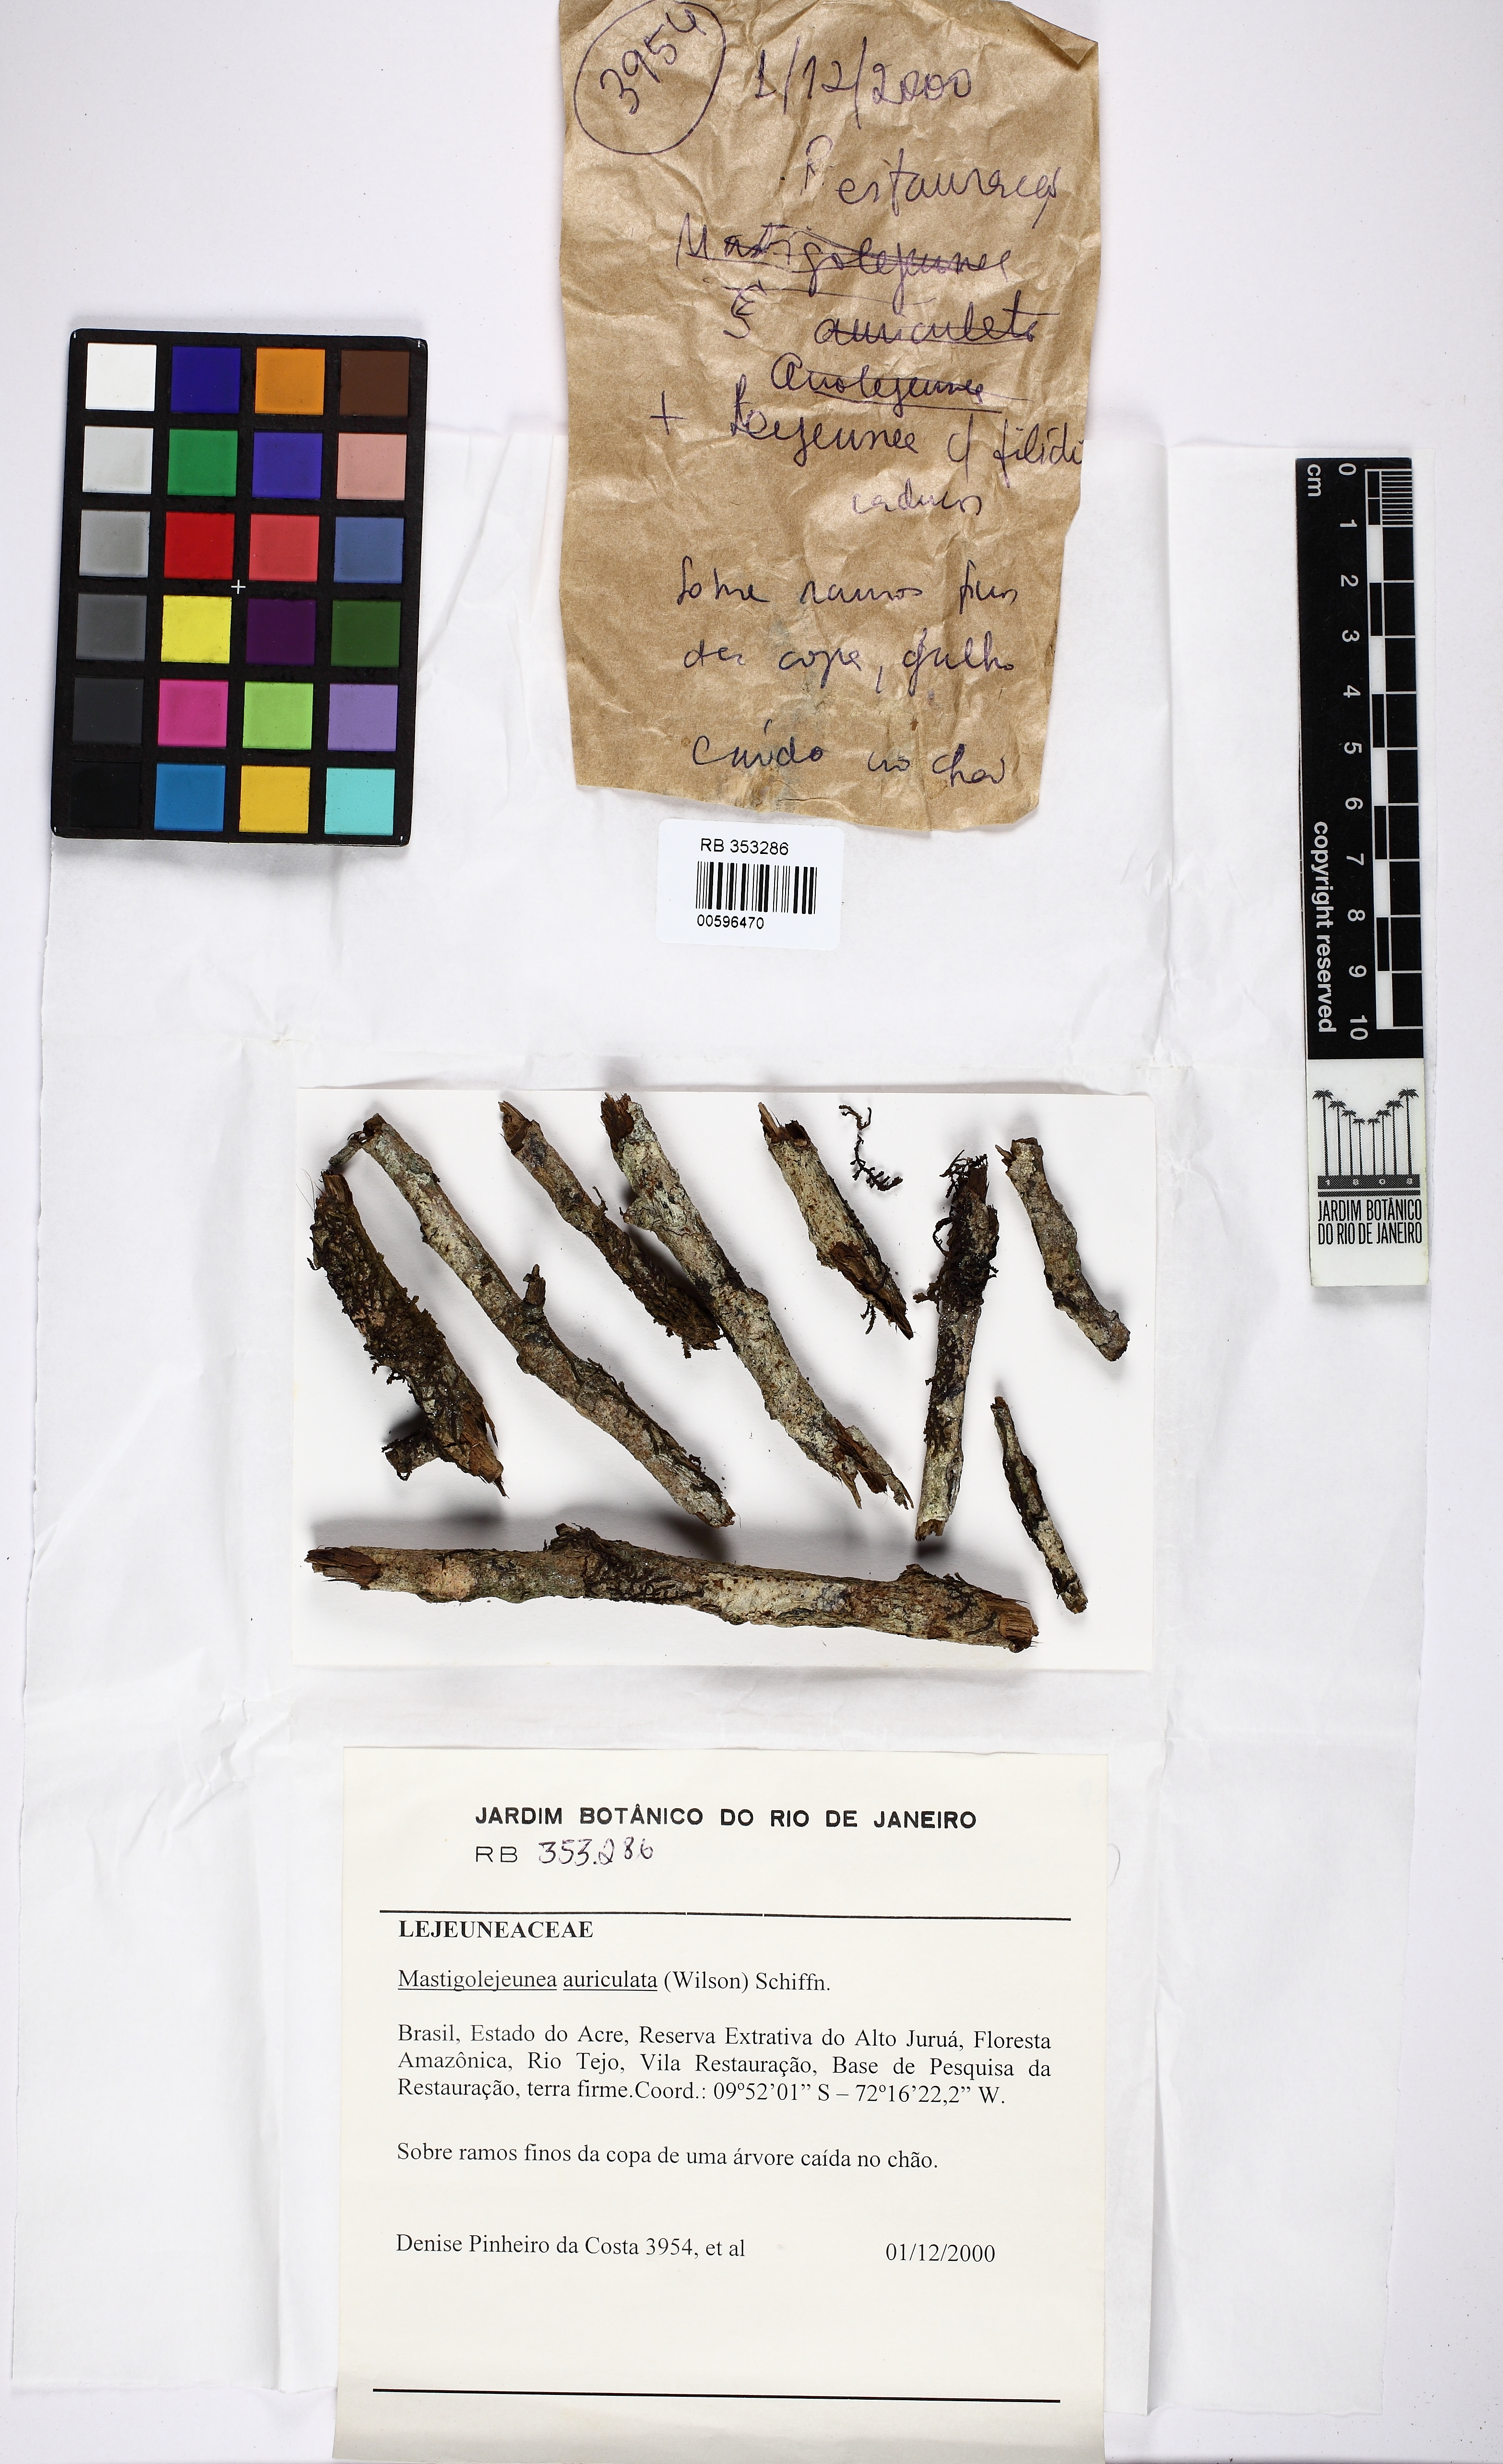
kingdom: Plantae
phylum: Marchantiophyta
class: Jungermanniopsida
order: Porellales
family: Lejeuneaceae
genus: Thysananthus
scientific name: Thysananthus auriculatus
